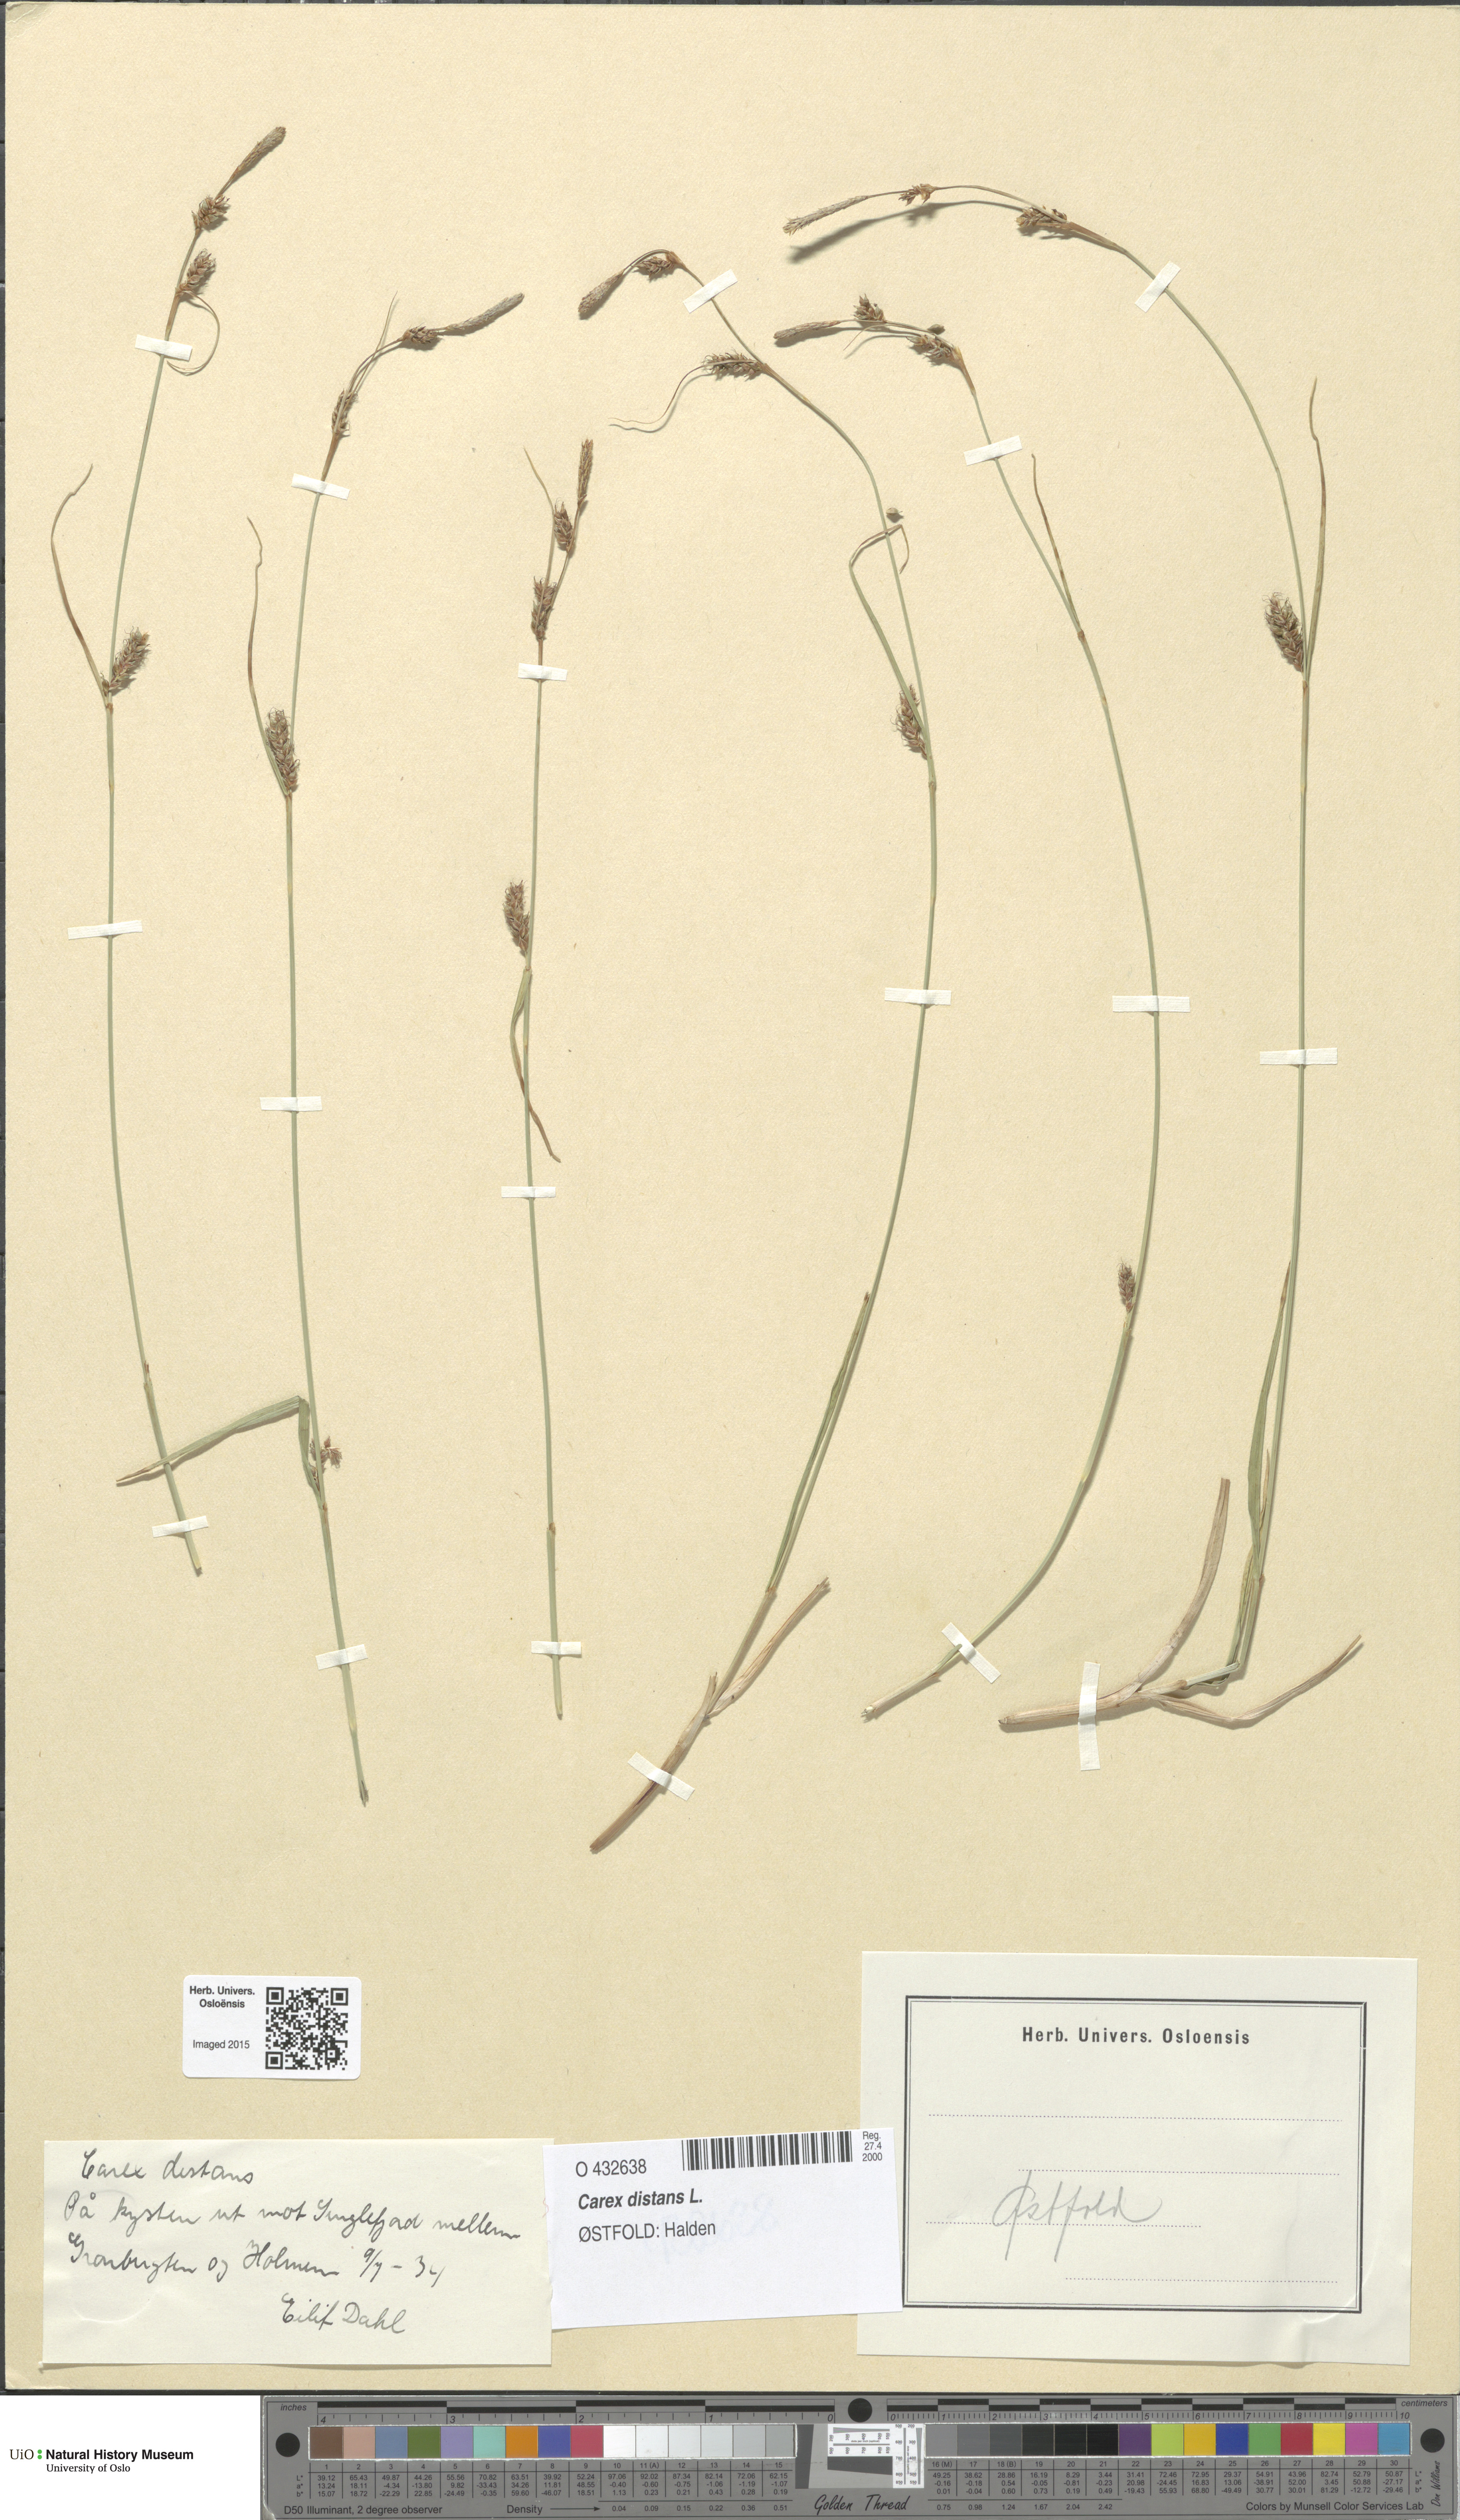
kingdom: Plantae
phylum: Tracheophyta
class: Liliopsida
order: Poales
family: Cyperaceae
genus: Carex
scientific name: Carex distans
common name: Distant sedge
